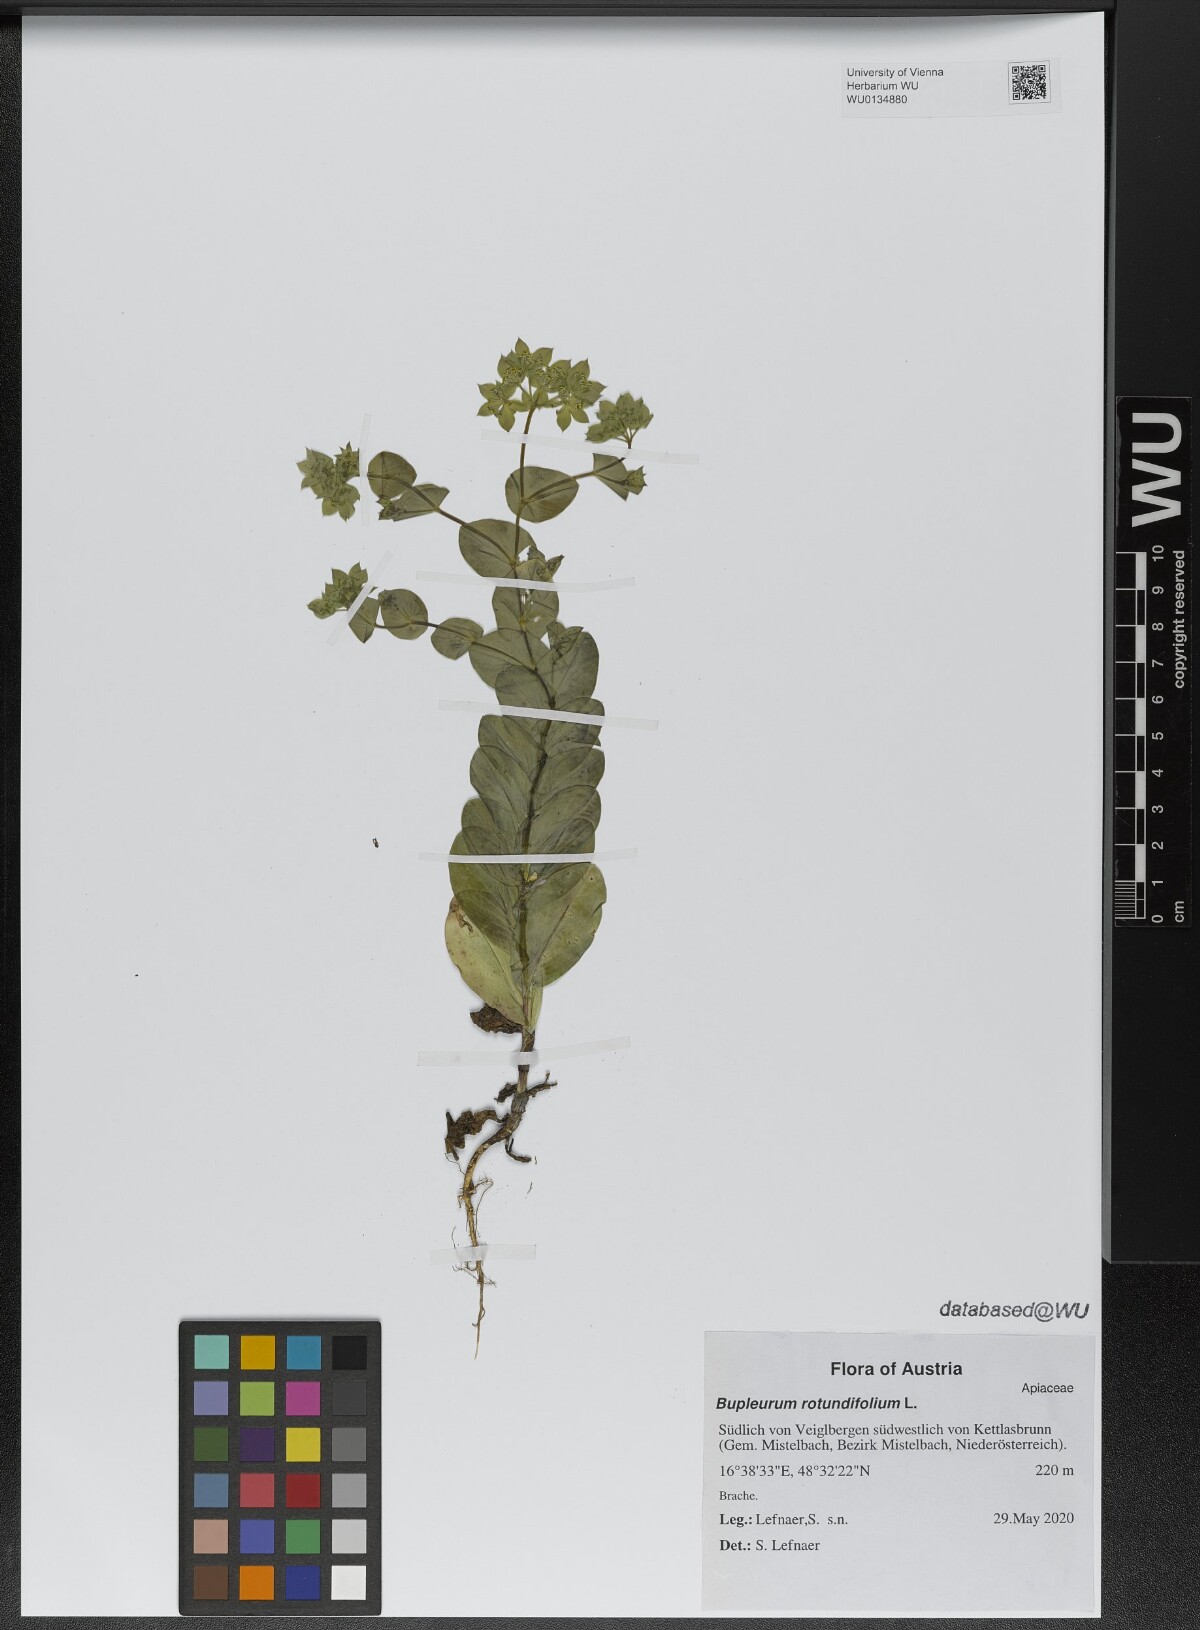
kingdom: Plantae
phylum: Tracheophyta
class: Magnoliopsida
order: Apiales
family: Apiaceae
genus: Bupleurum
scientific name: Bupleurum rotundifolium
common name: Thorow-wax
